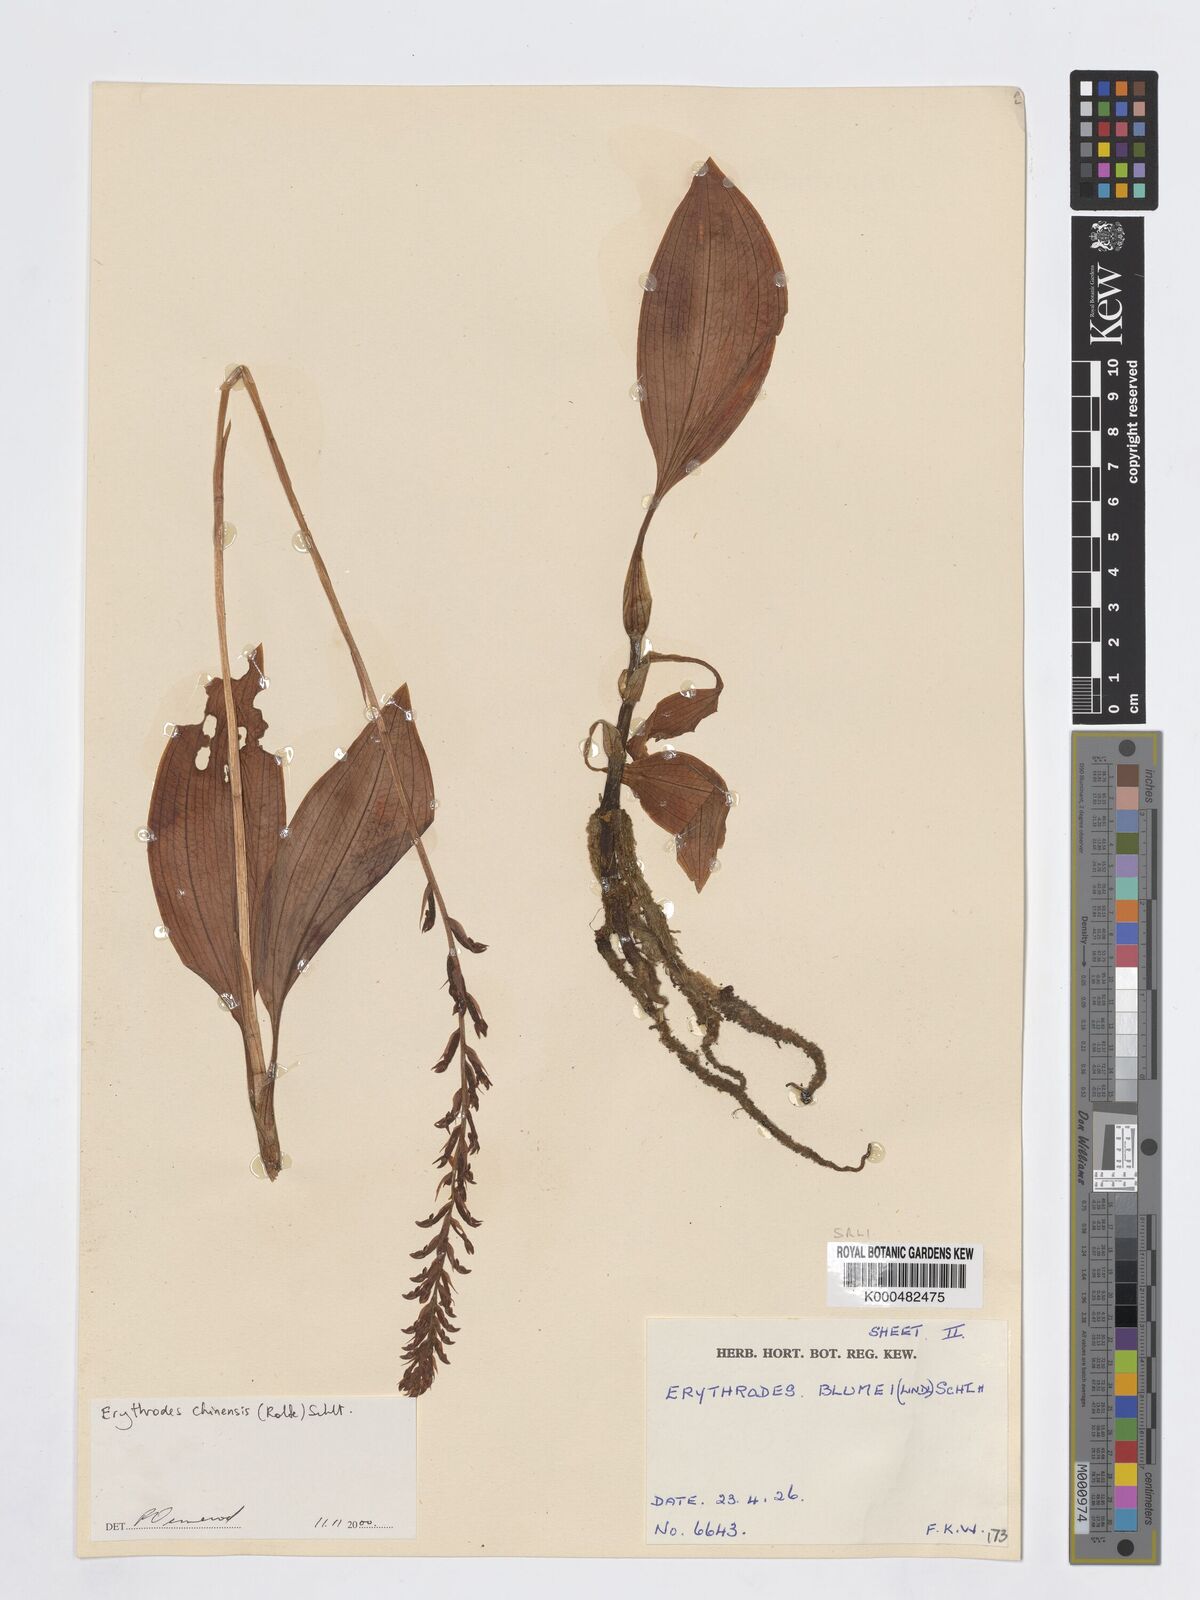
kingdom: Plantae
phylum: Tracheophyta
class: Liliopsida
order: Asparagales
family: Orchidaceae
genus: Erythrodes
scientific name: Erythrodes chinensis
